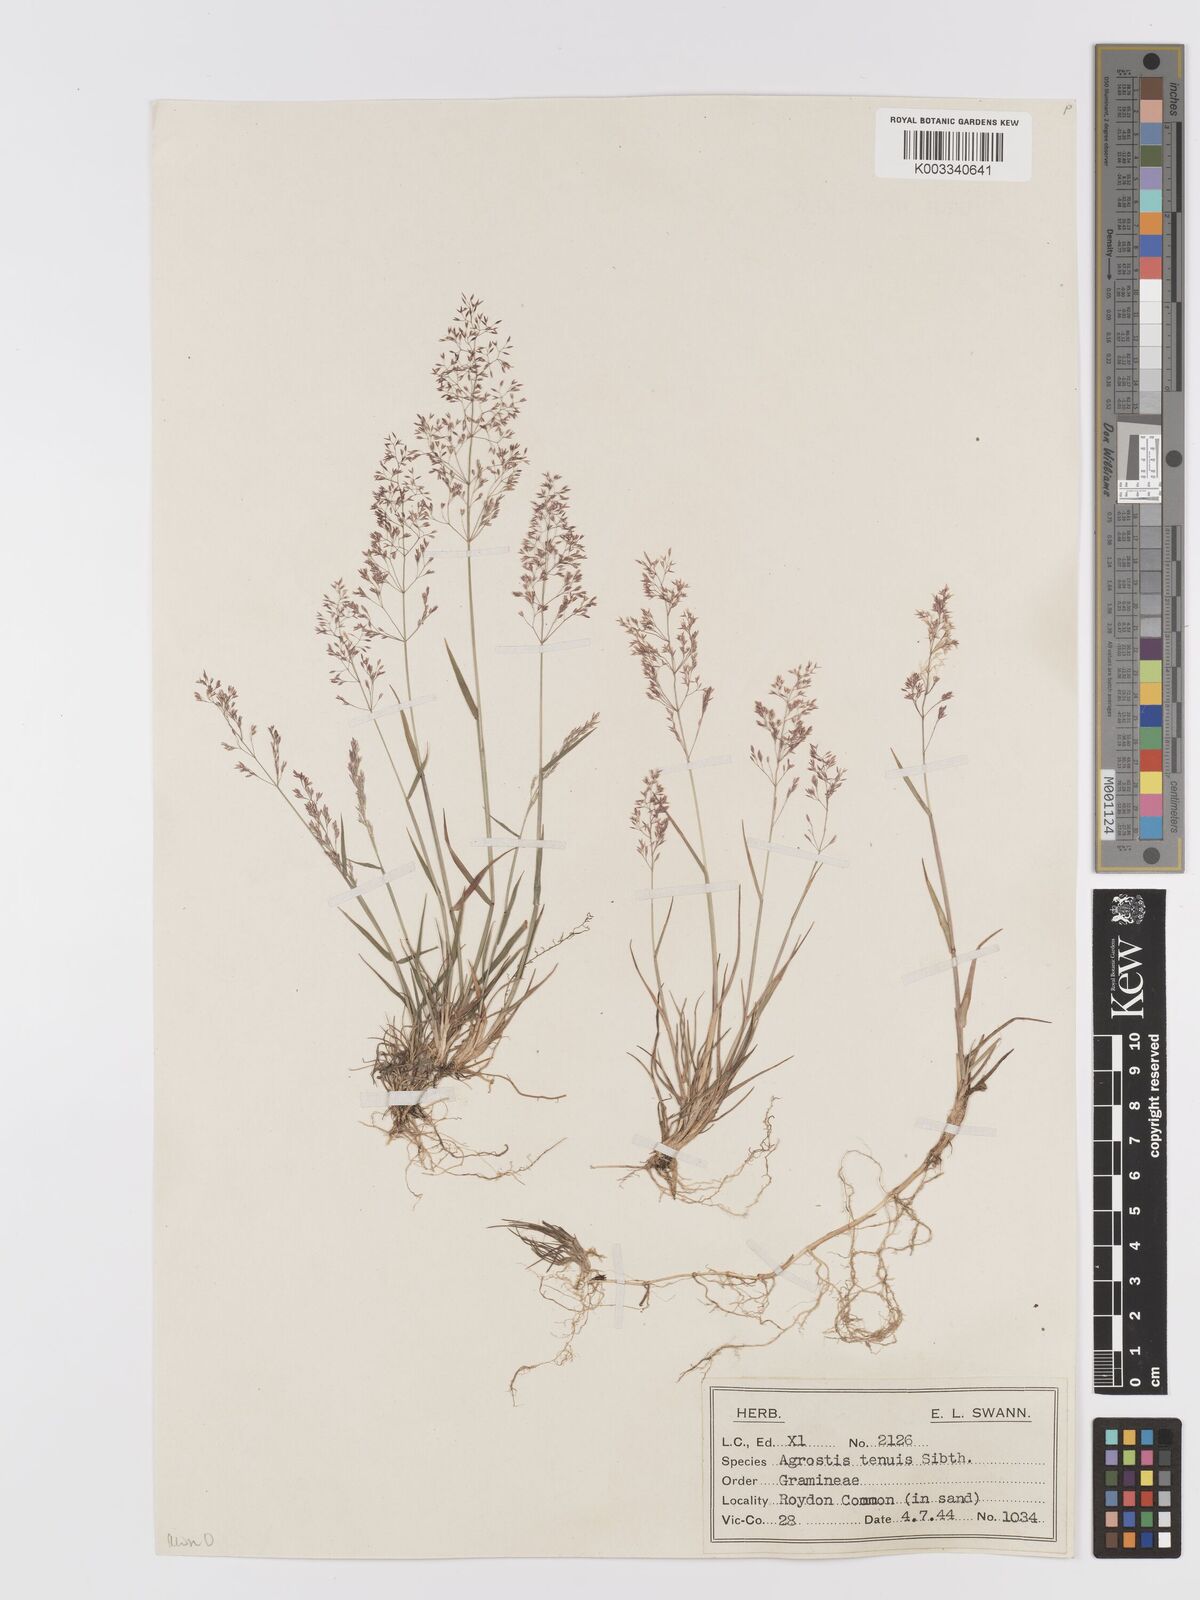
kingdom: Plantae
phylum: Tracheophyta
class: Liliopsida
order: Poales
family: Poaceae
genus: Agrostis
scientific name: Agrostis capillaris
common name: Colonial bentgrass
